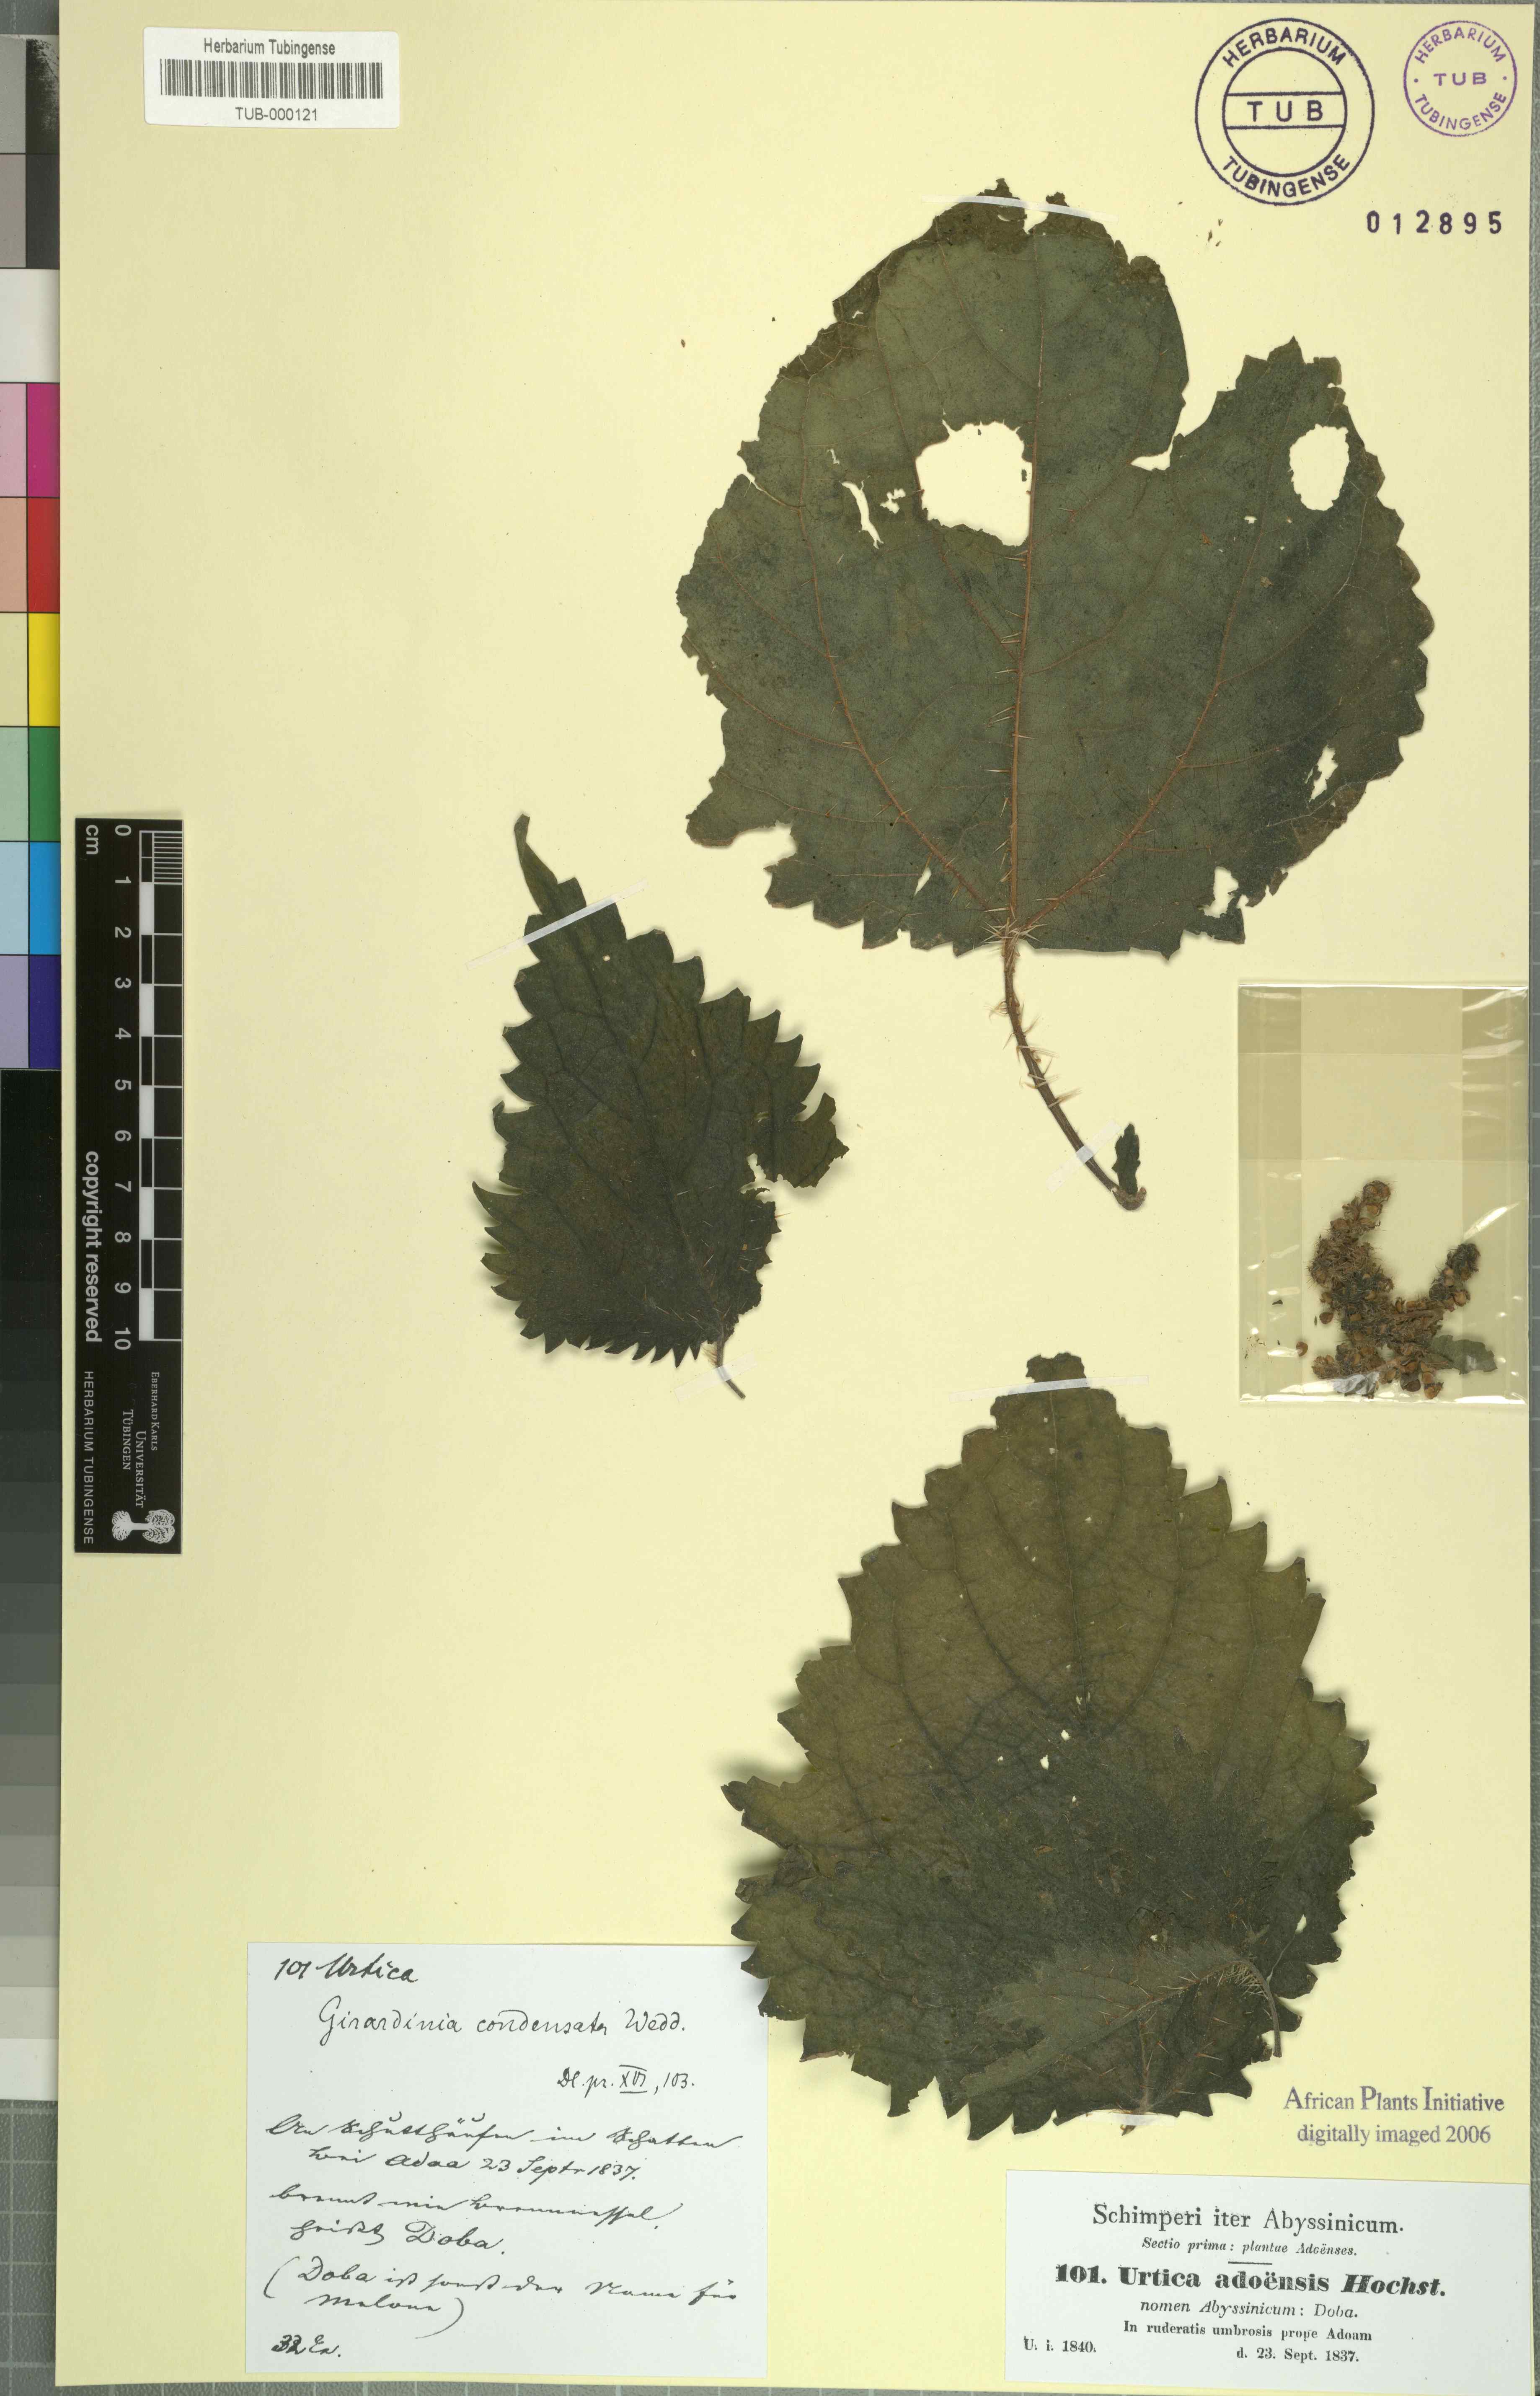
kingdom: Plantae
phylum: Tracheophyta
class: Magnoliopsida
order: Rosales
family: Urticaceae
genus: Girardinia
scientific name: Girardinia diversifolia
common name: Himalayan-nettle
